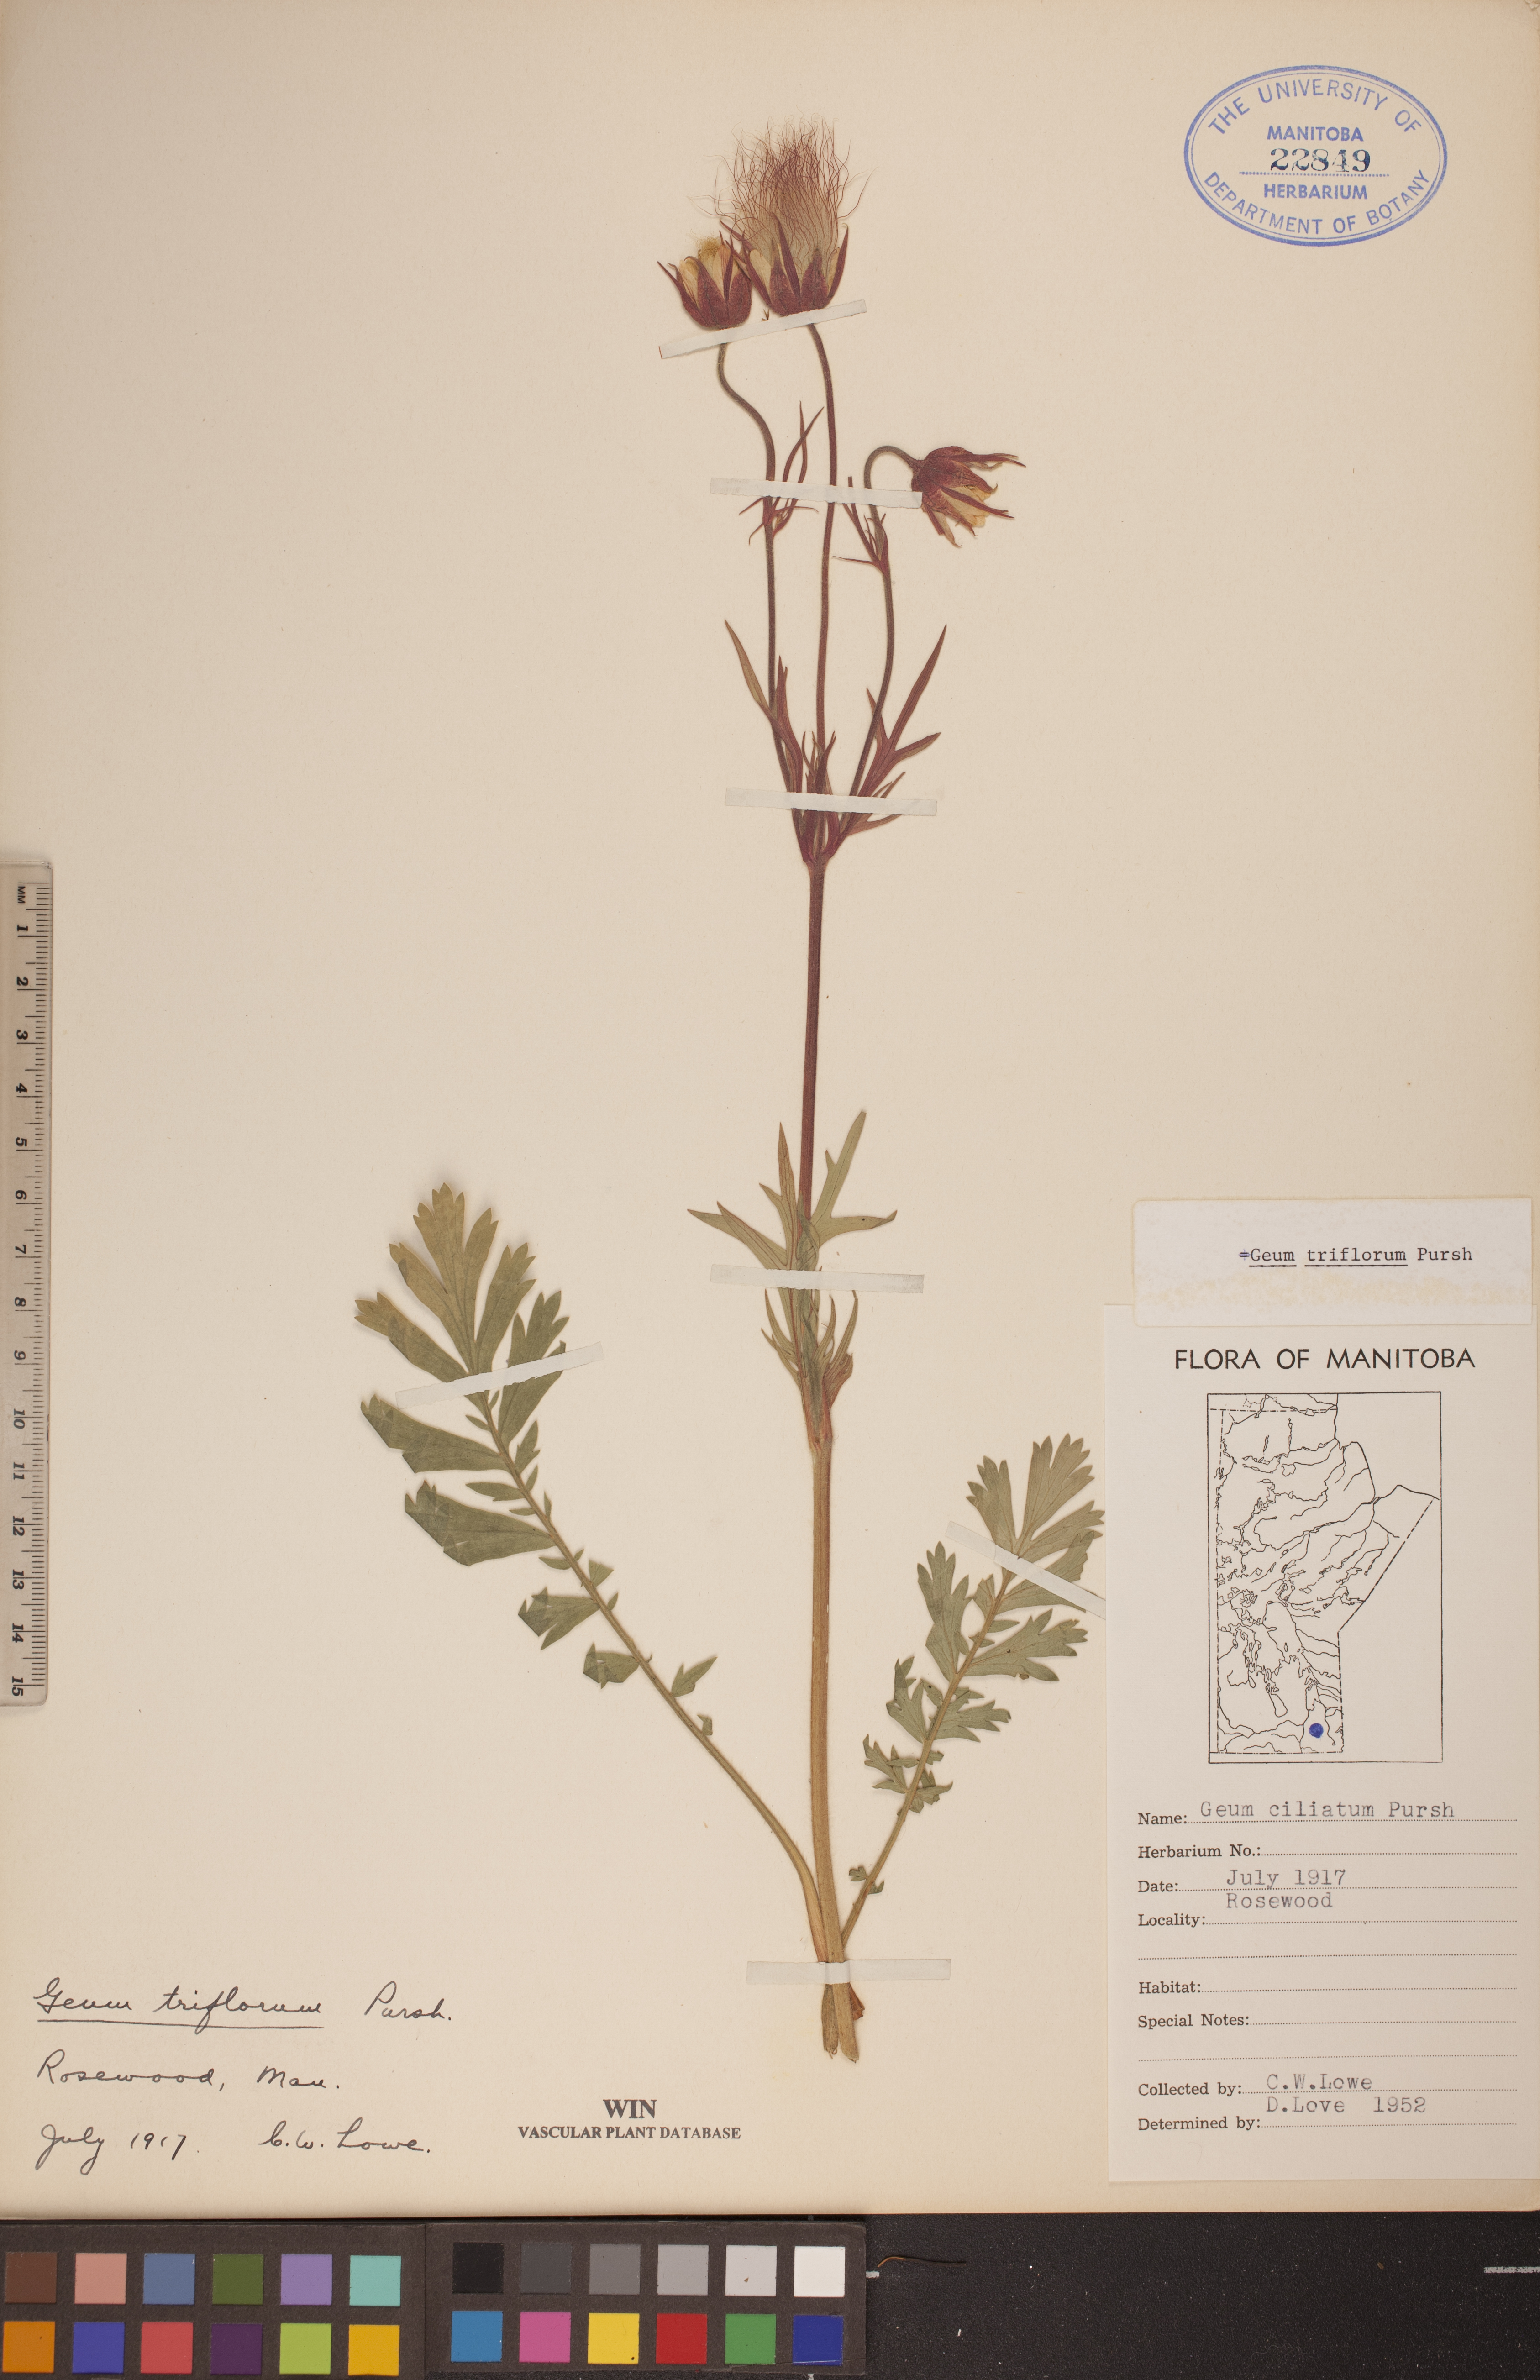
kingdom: Plantae
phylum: Tracheophyta
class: Magnoliopsida
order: Rosales
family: Rosaceae
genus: Geum
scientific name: Geum triflorum
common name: Old man's whiskers
